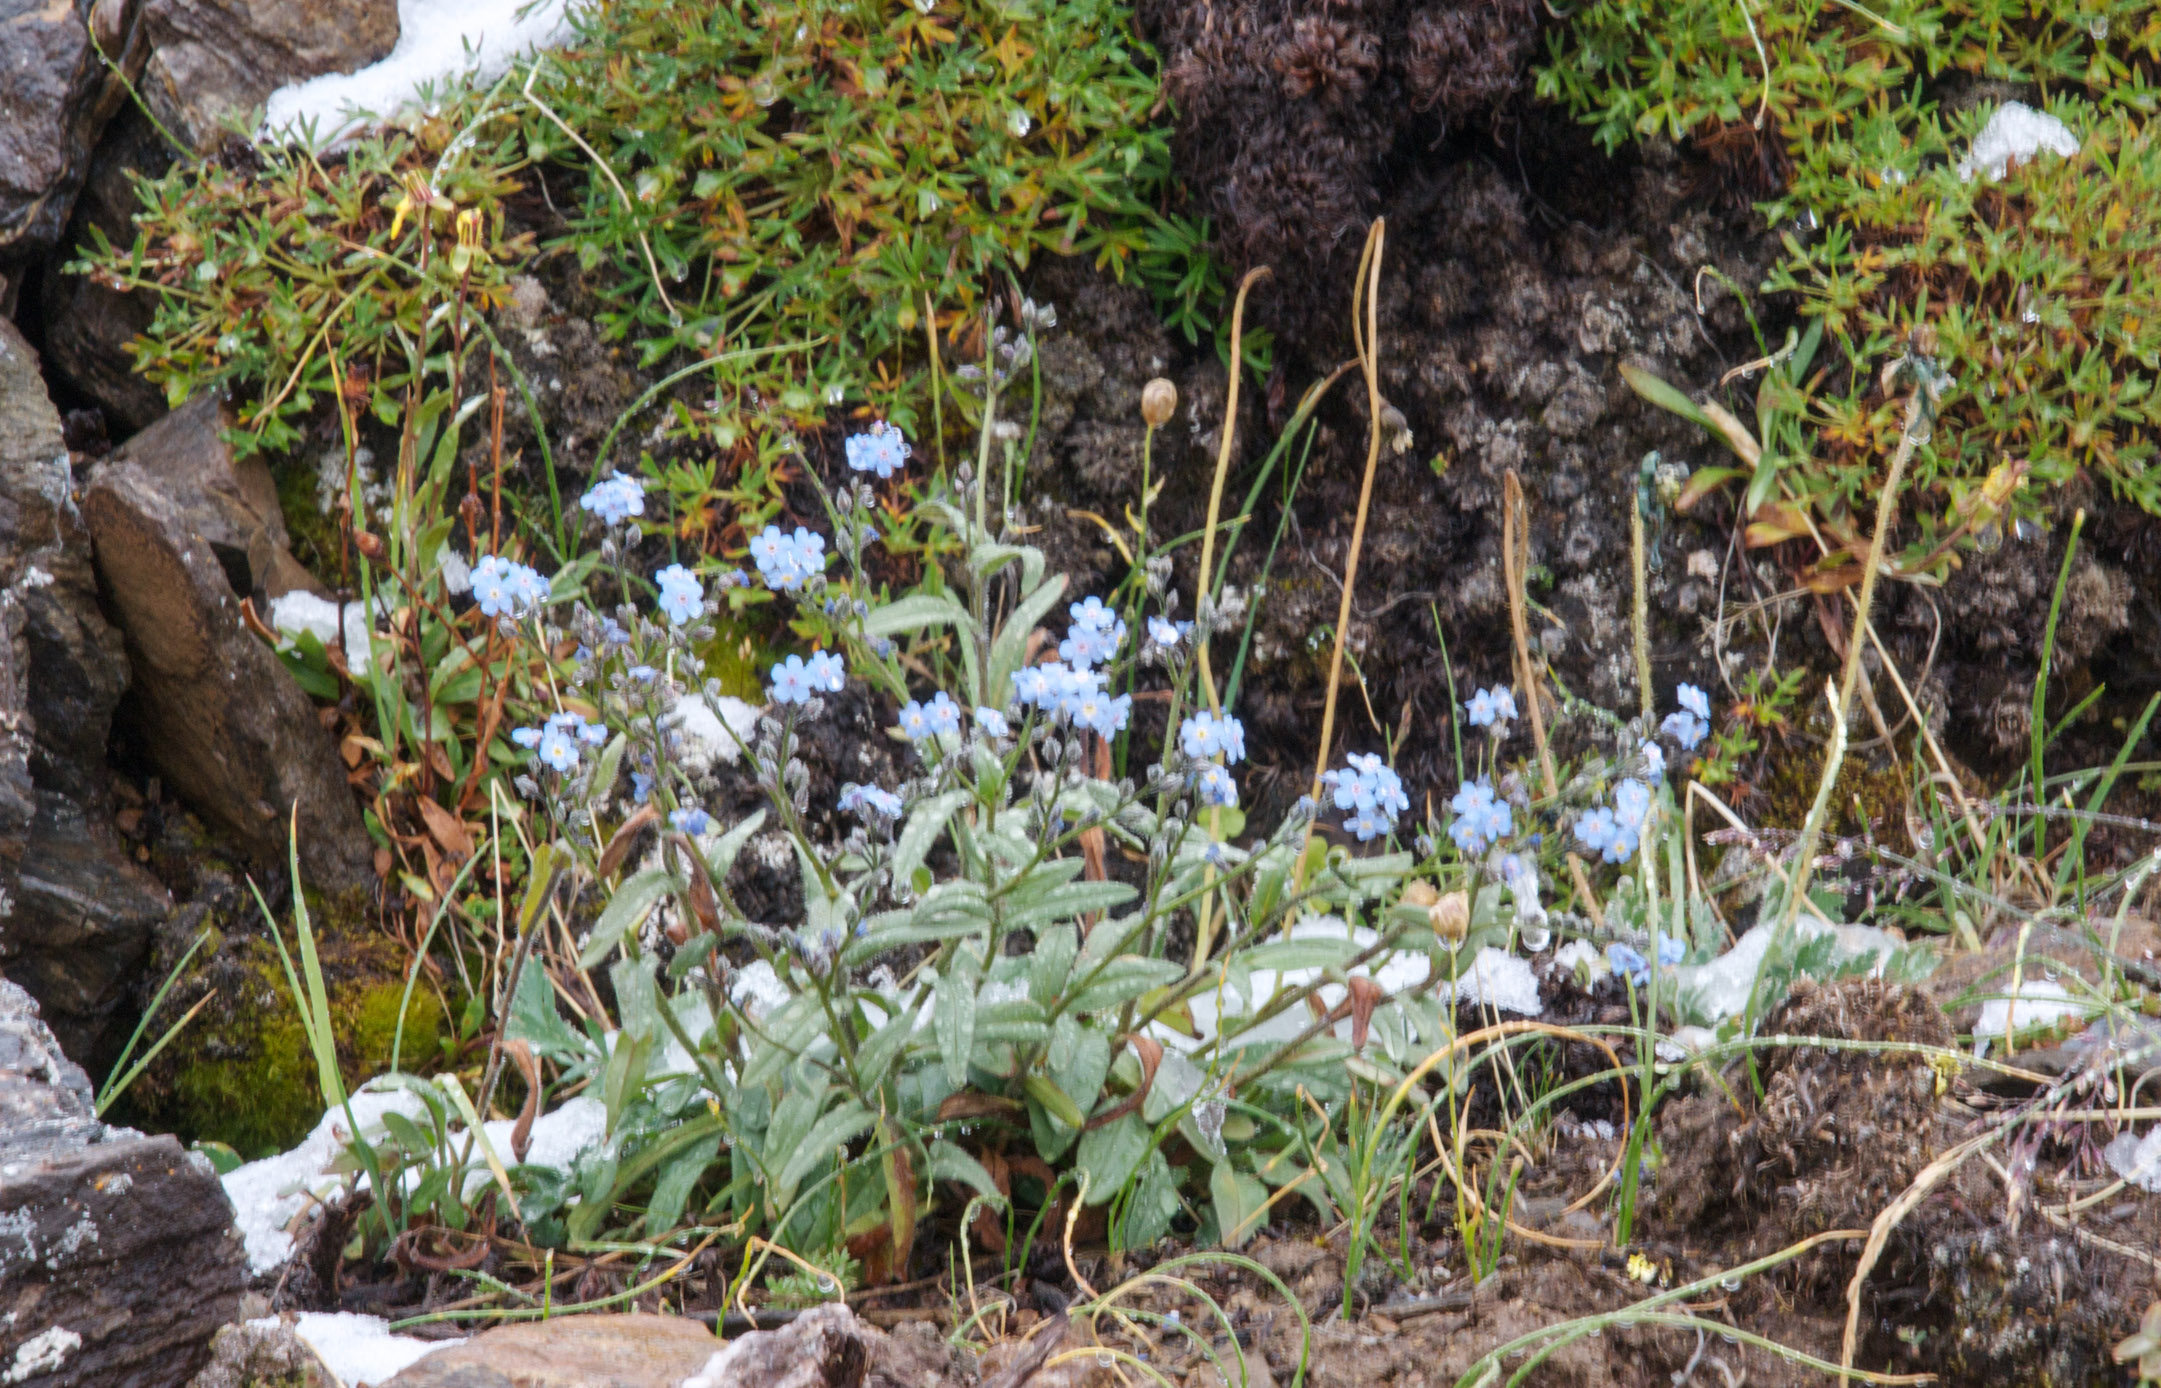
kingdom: Plantae
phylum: Tracheophyta
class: Magnoliopsida
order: Boraginales
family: Boraginaceae
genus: Myosotis
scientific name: Myosotis austrosibirica
